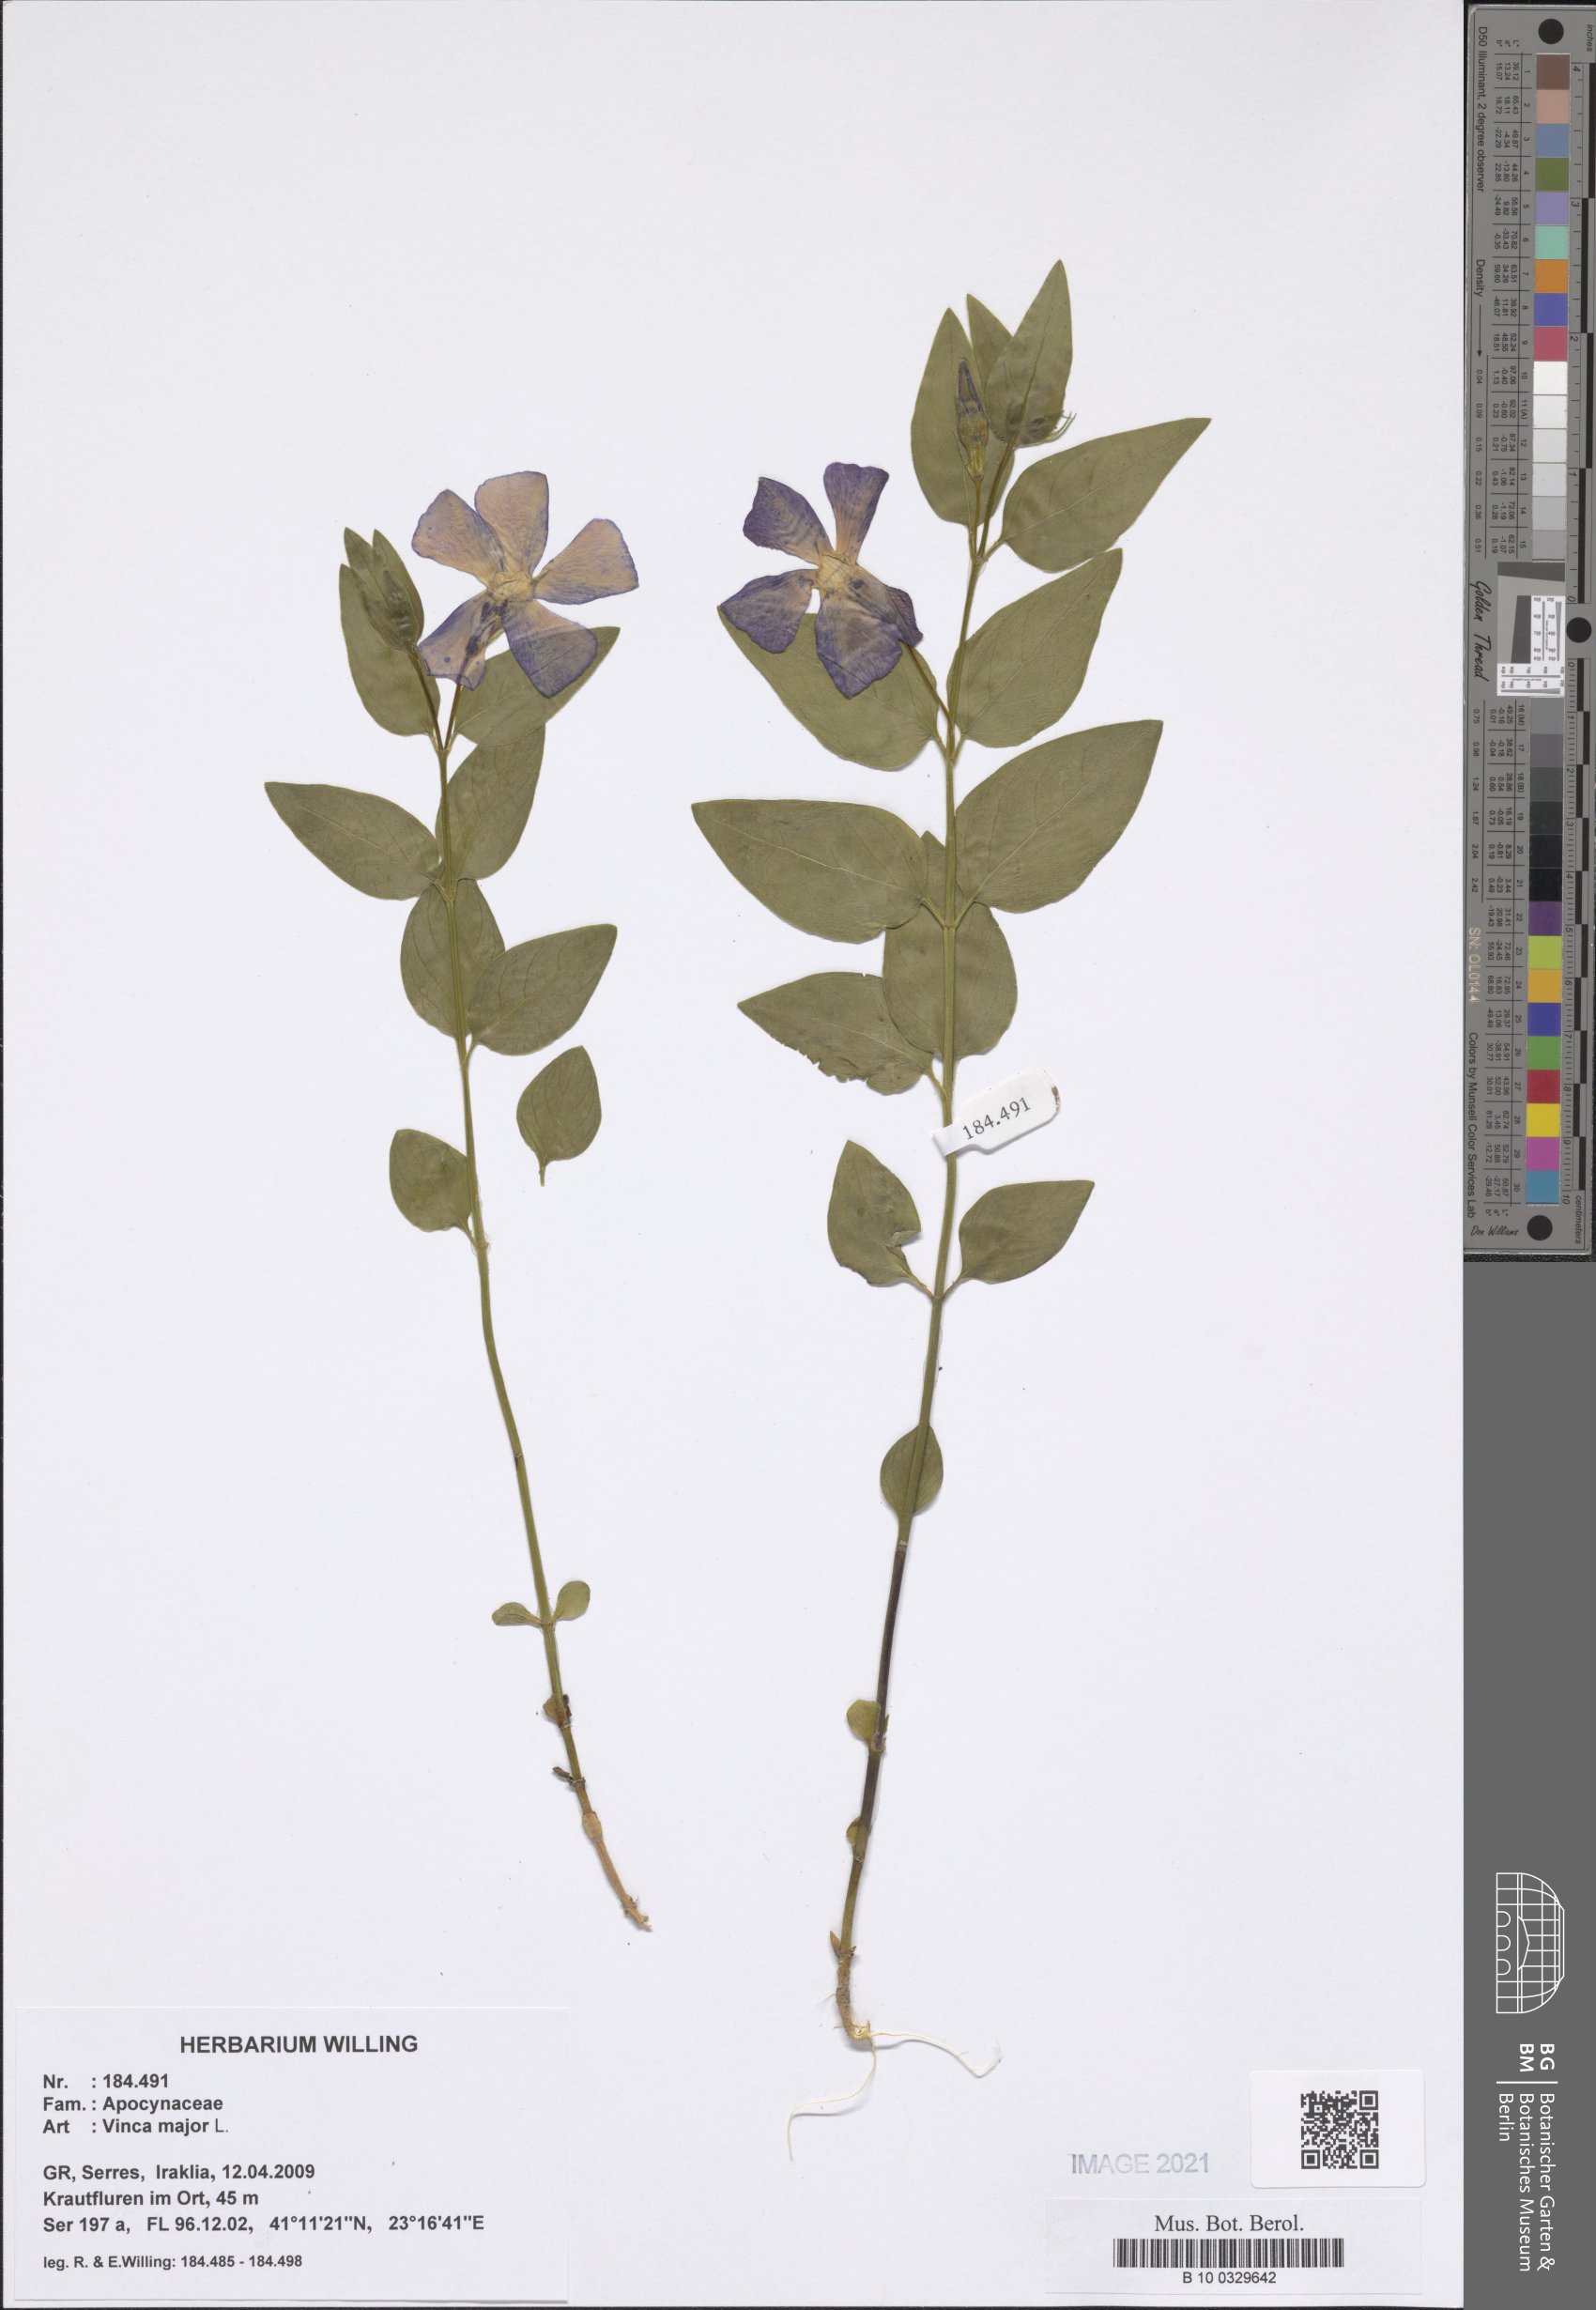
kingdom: Plantae
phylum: Tracheophyta
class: Magnoliopsida
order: Gentianales
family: Apocynaceae
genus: Vinca
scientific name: Vinca major
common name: Greater periwinkle
